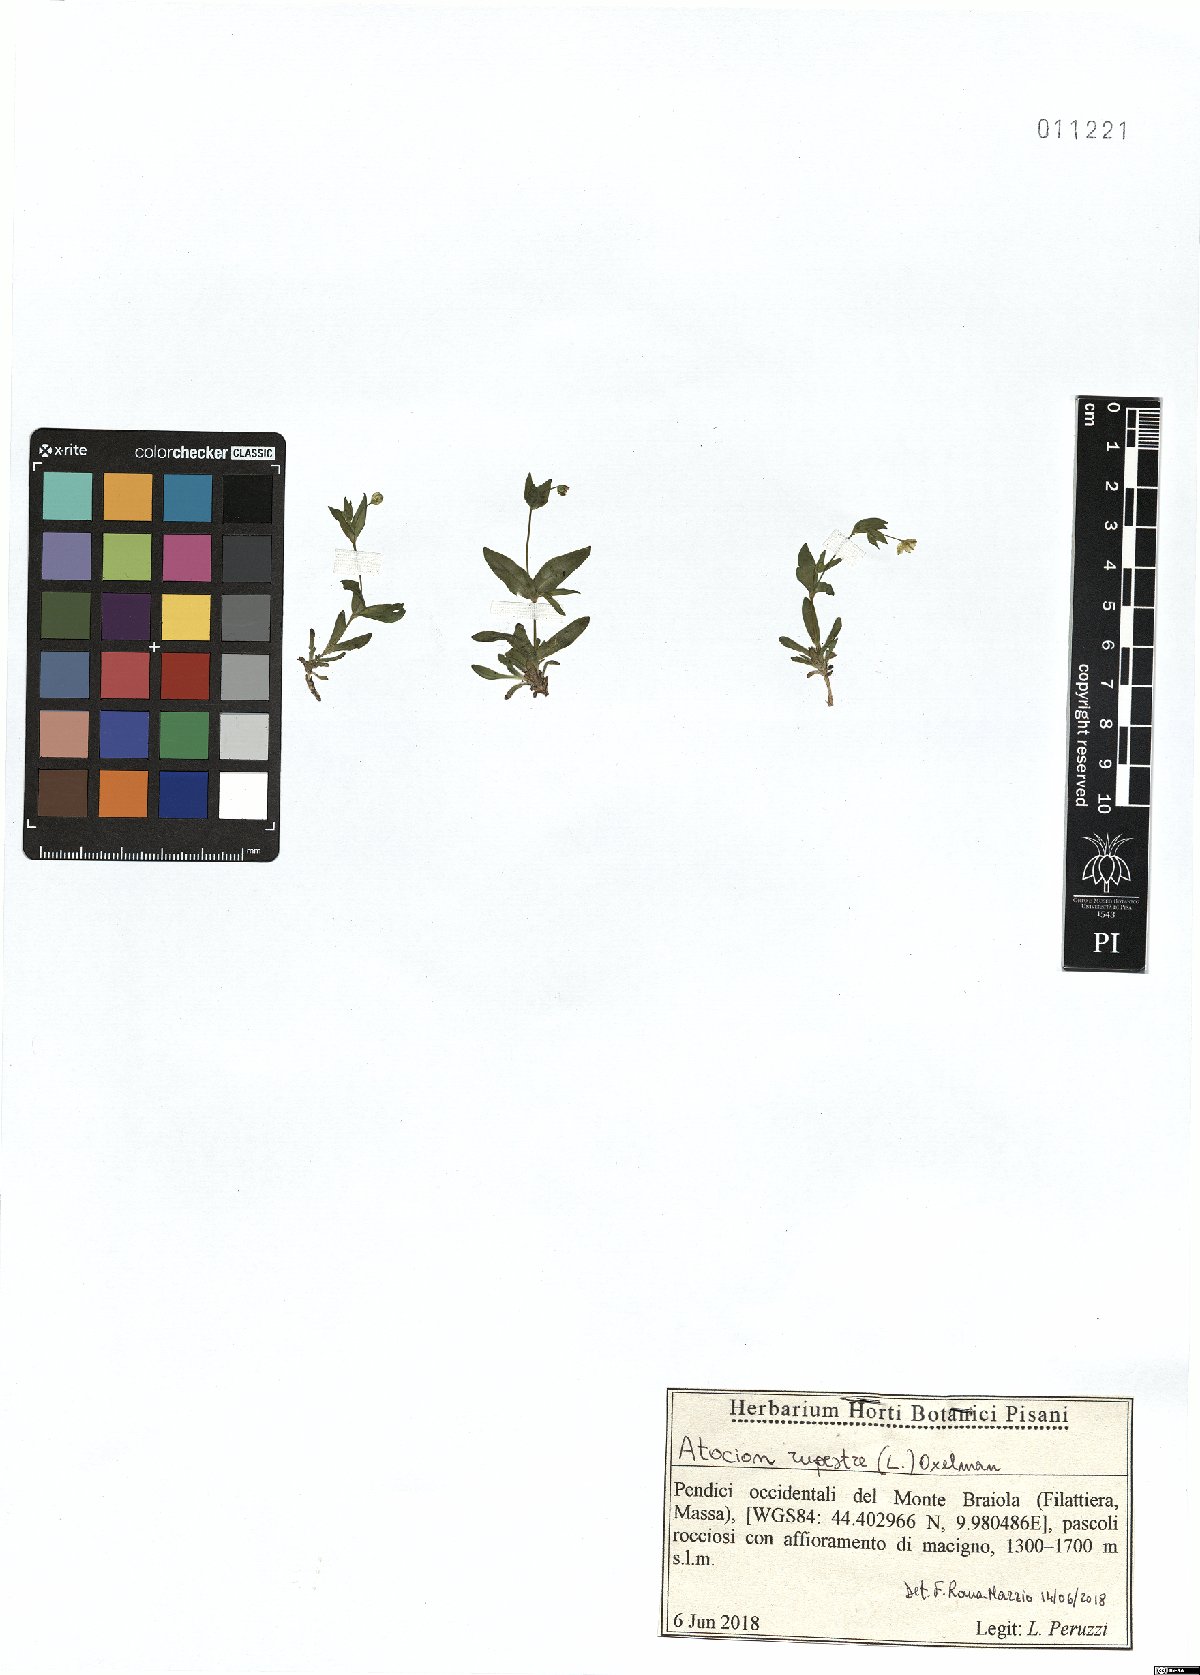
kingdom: Plantae
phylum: Tracheophyta
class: Magnoliopsida
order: Caryophyllales
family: Caryophyllaceae
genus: Atocion
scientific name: Atocion rupestre
